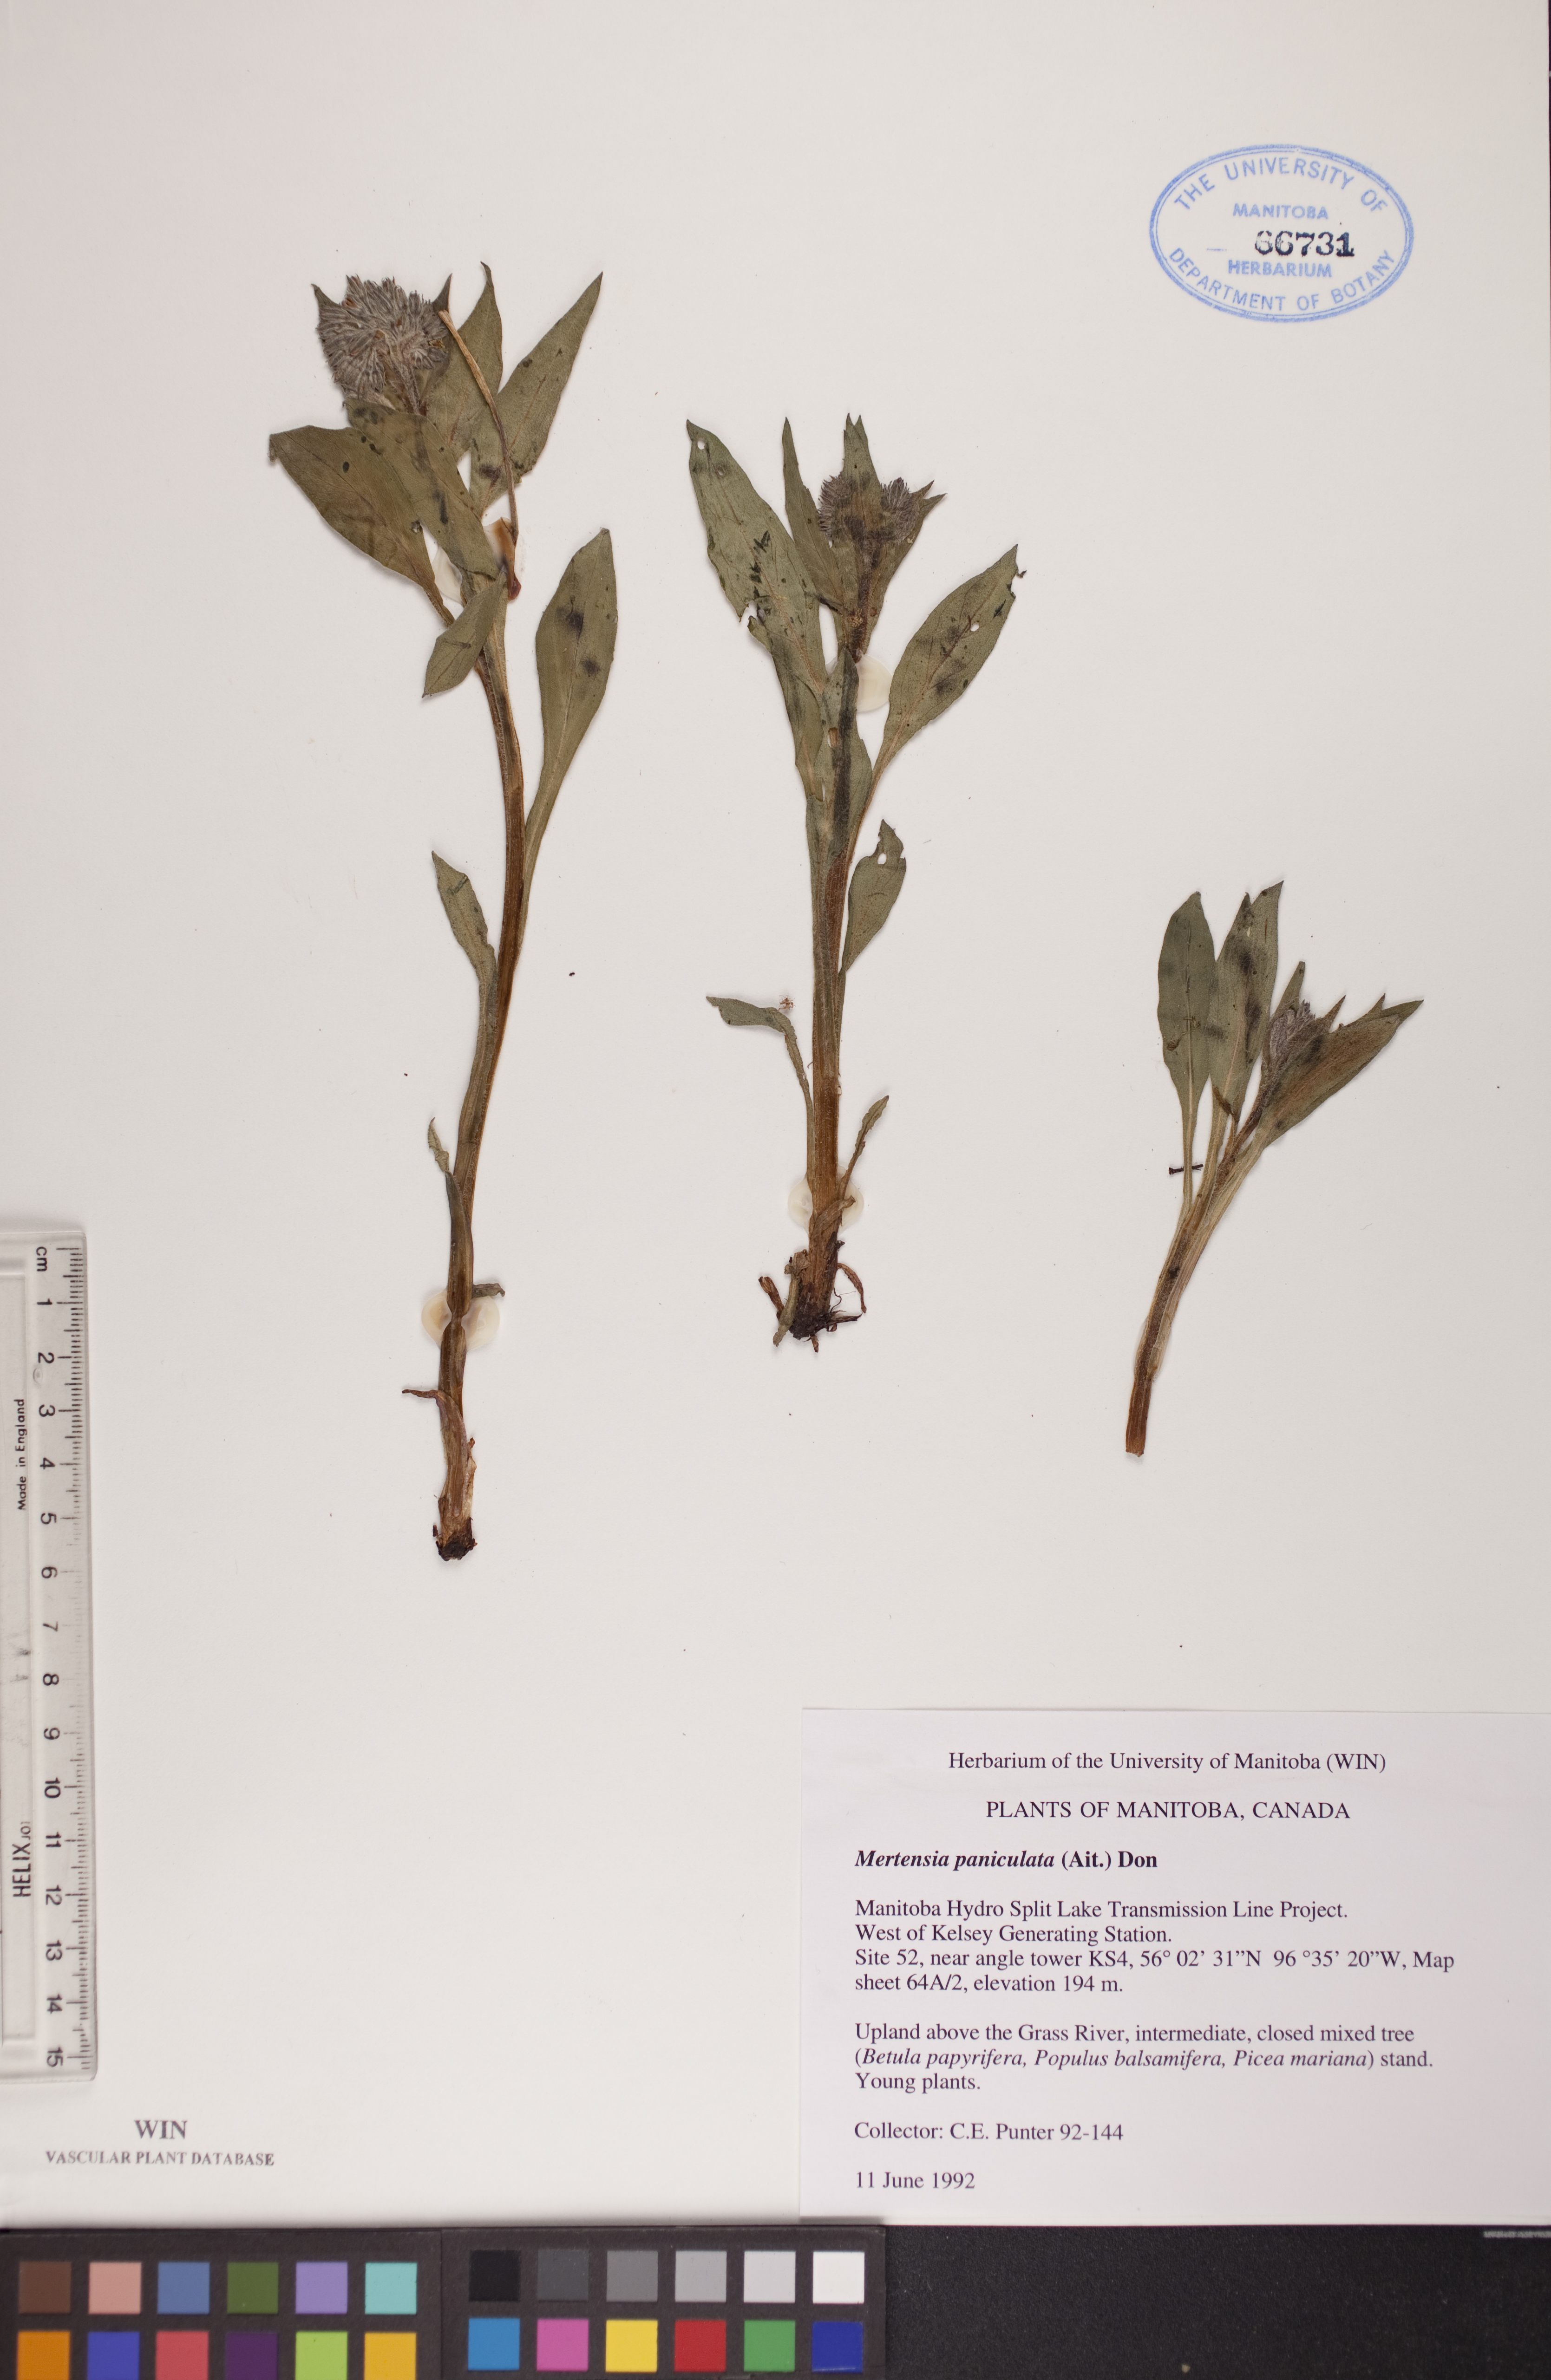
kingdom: Plantae
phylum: Tracheophyta
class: Magnoliopsida
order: Boraginales
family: Boraginaceae
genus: Mertensia
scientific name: Mertensia paniculata
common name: Panicled bluebells
